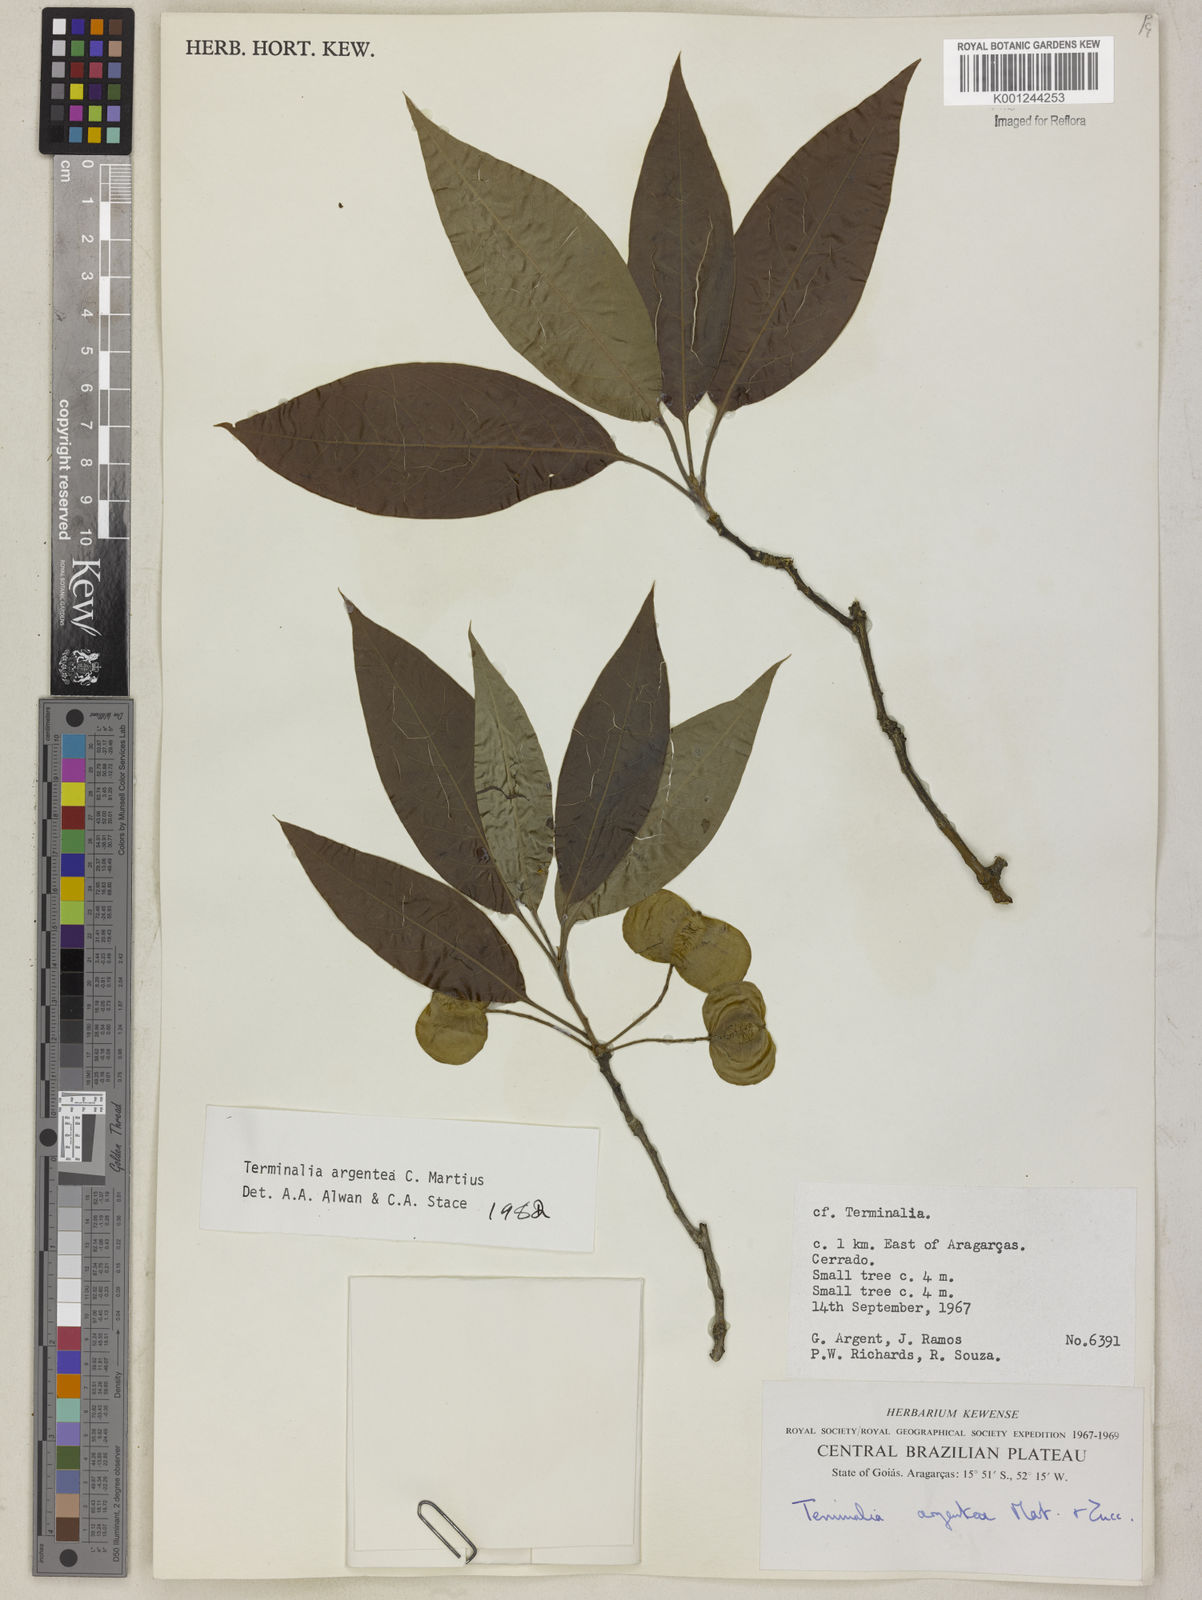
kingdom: Plantae
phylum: Tracheophyta
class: Magnoliopsida
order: Myrtales
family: Combretaceae
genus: Terminalia
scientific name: Terminalia argentea
